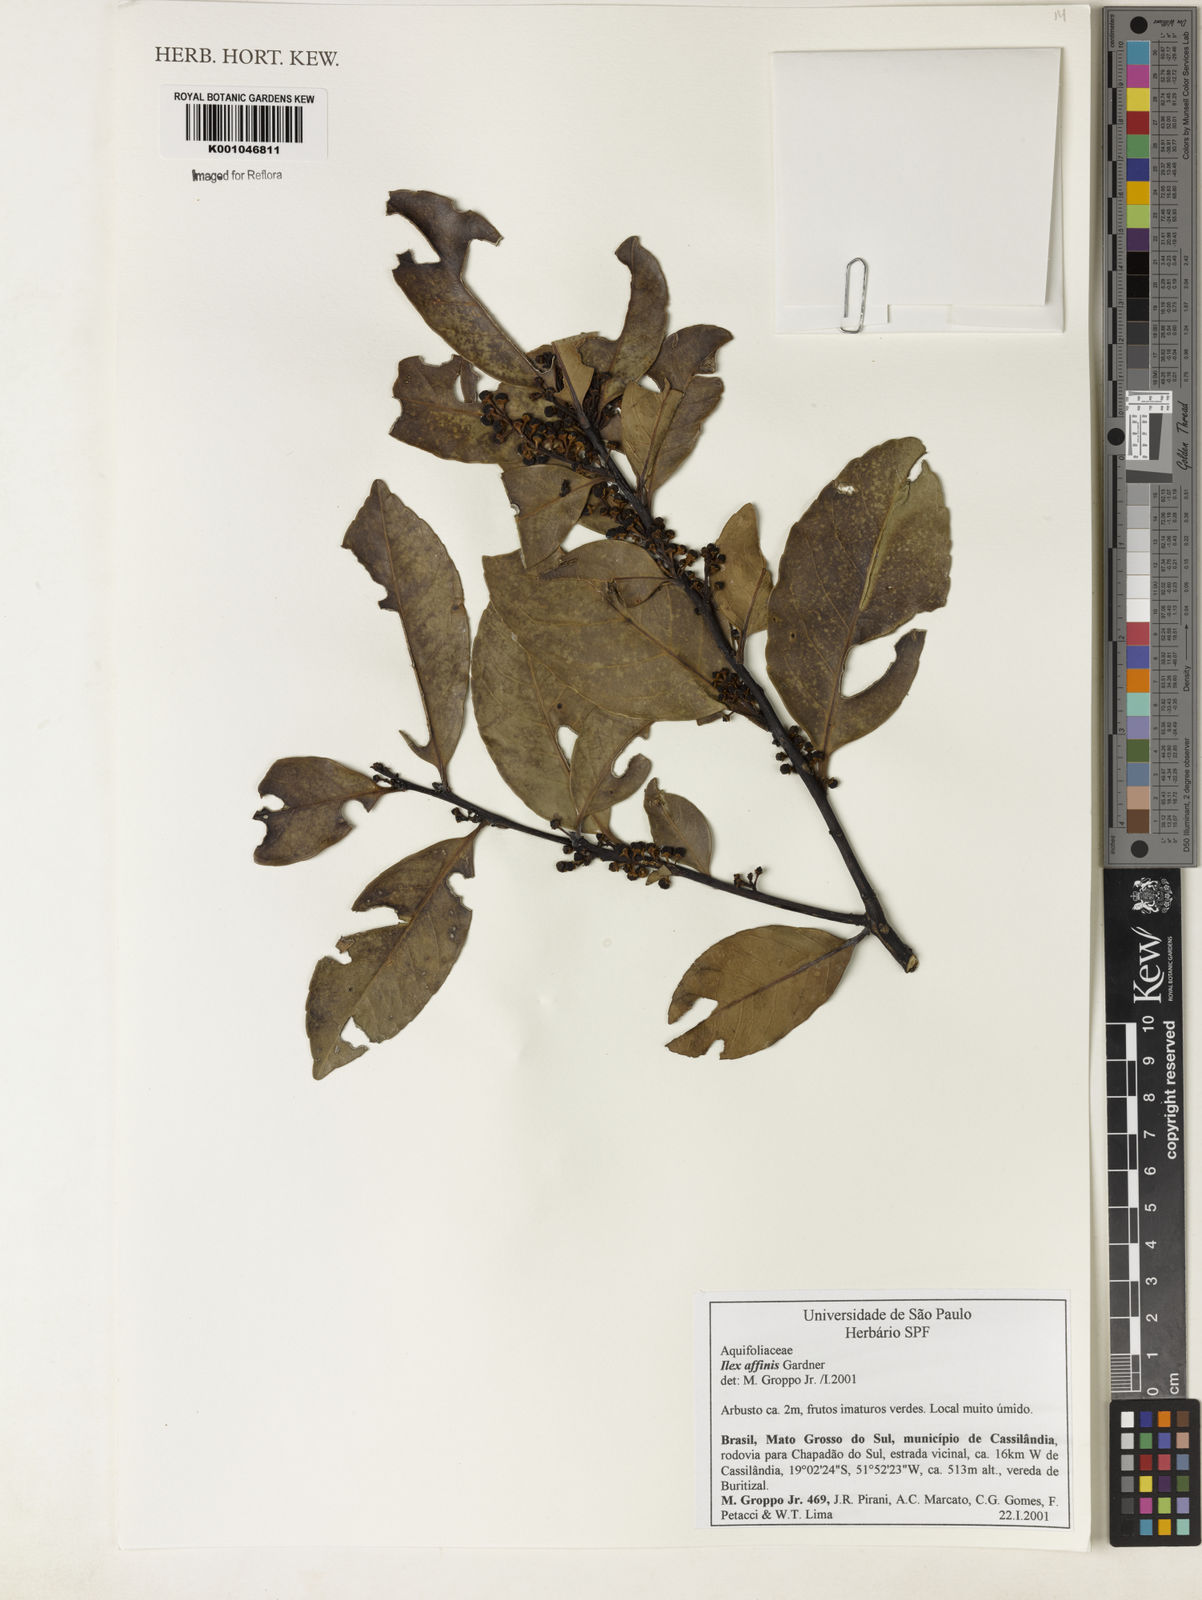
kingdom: Plantae
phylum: Tracheophyta
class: Magnoliopsida
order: Aquifoliales
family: Aquifoliaceae
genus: Ilex
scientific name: Ilex affinis
